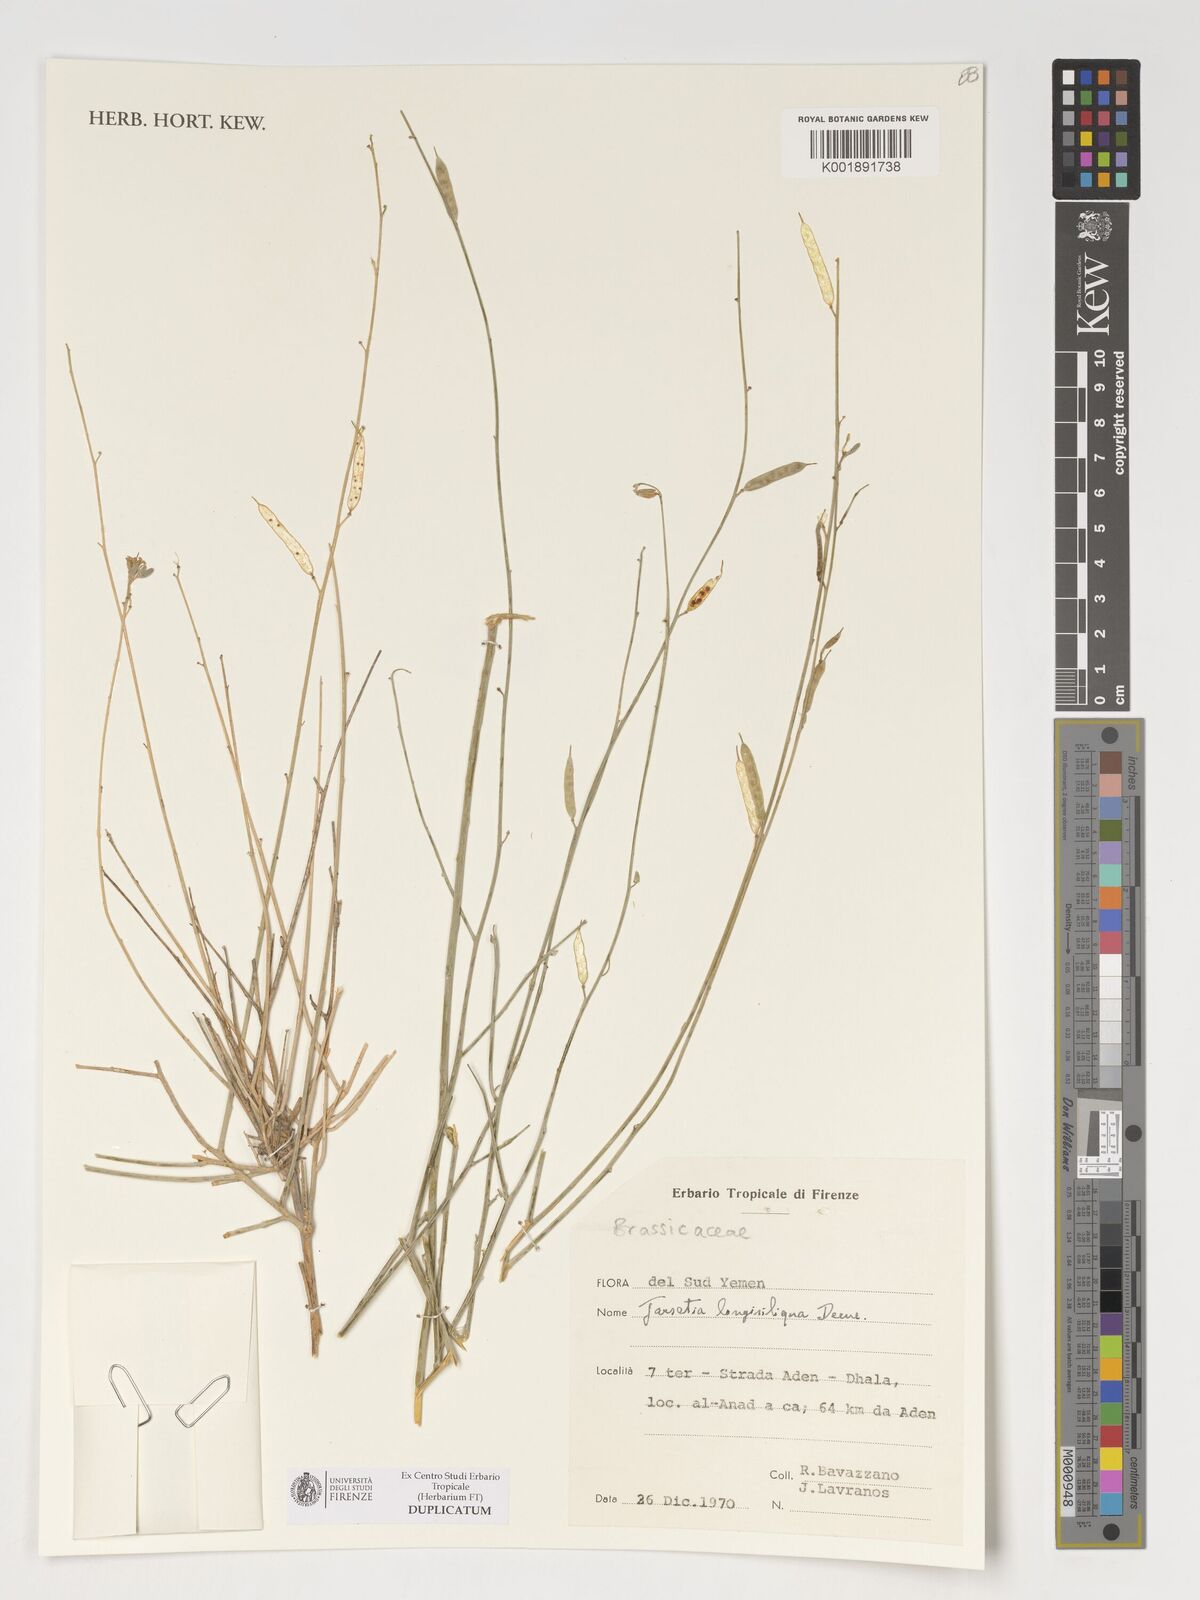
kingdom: Plantae
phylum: Tracheophyta
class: Magnoliopsida
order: Brassicales
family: Brassicaceae
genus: Farsetia
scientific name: Farsetia longisiliqua
